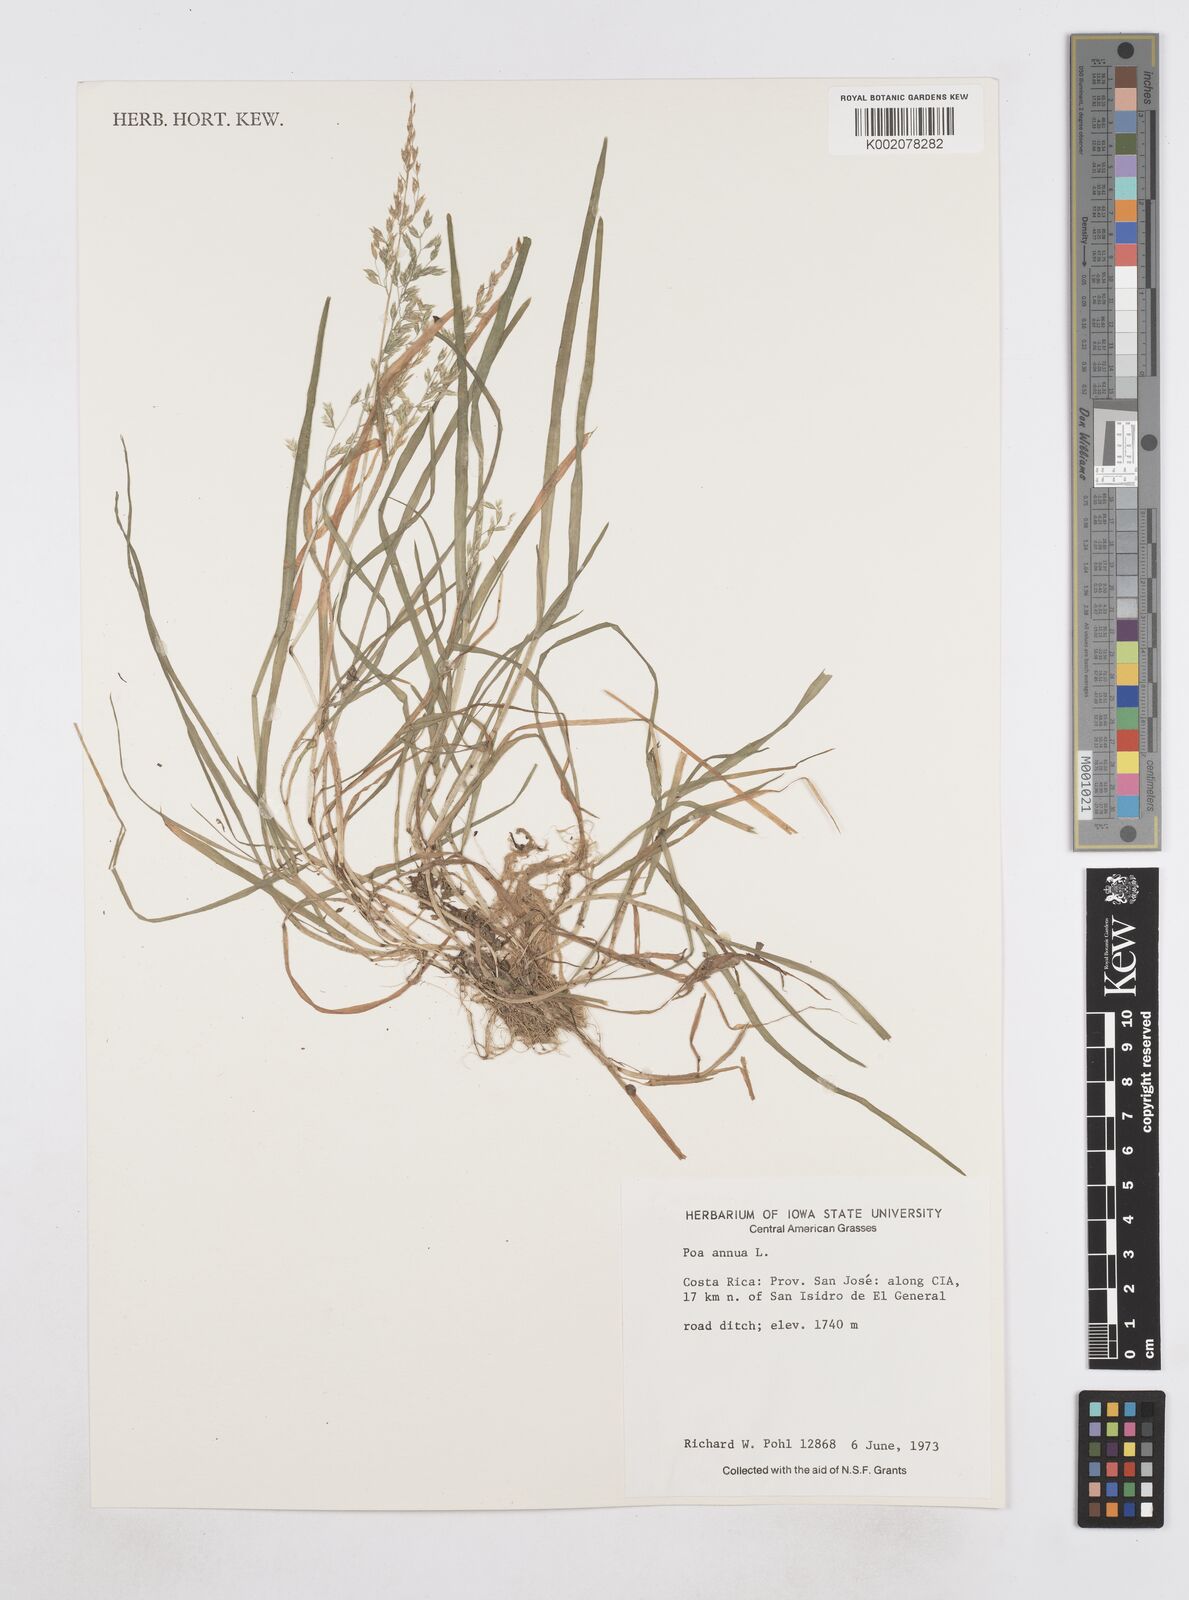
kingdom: Plantae
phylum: Tracheophyta
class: Liliopsida
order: Poales
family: Poaceae
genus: Poa
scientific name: Poa annua
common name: Annual bluegrass
